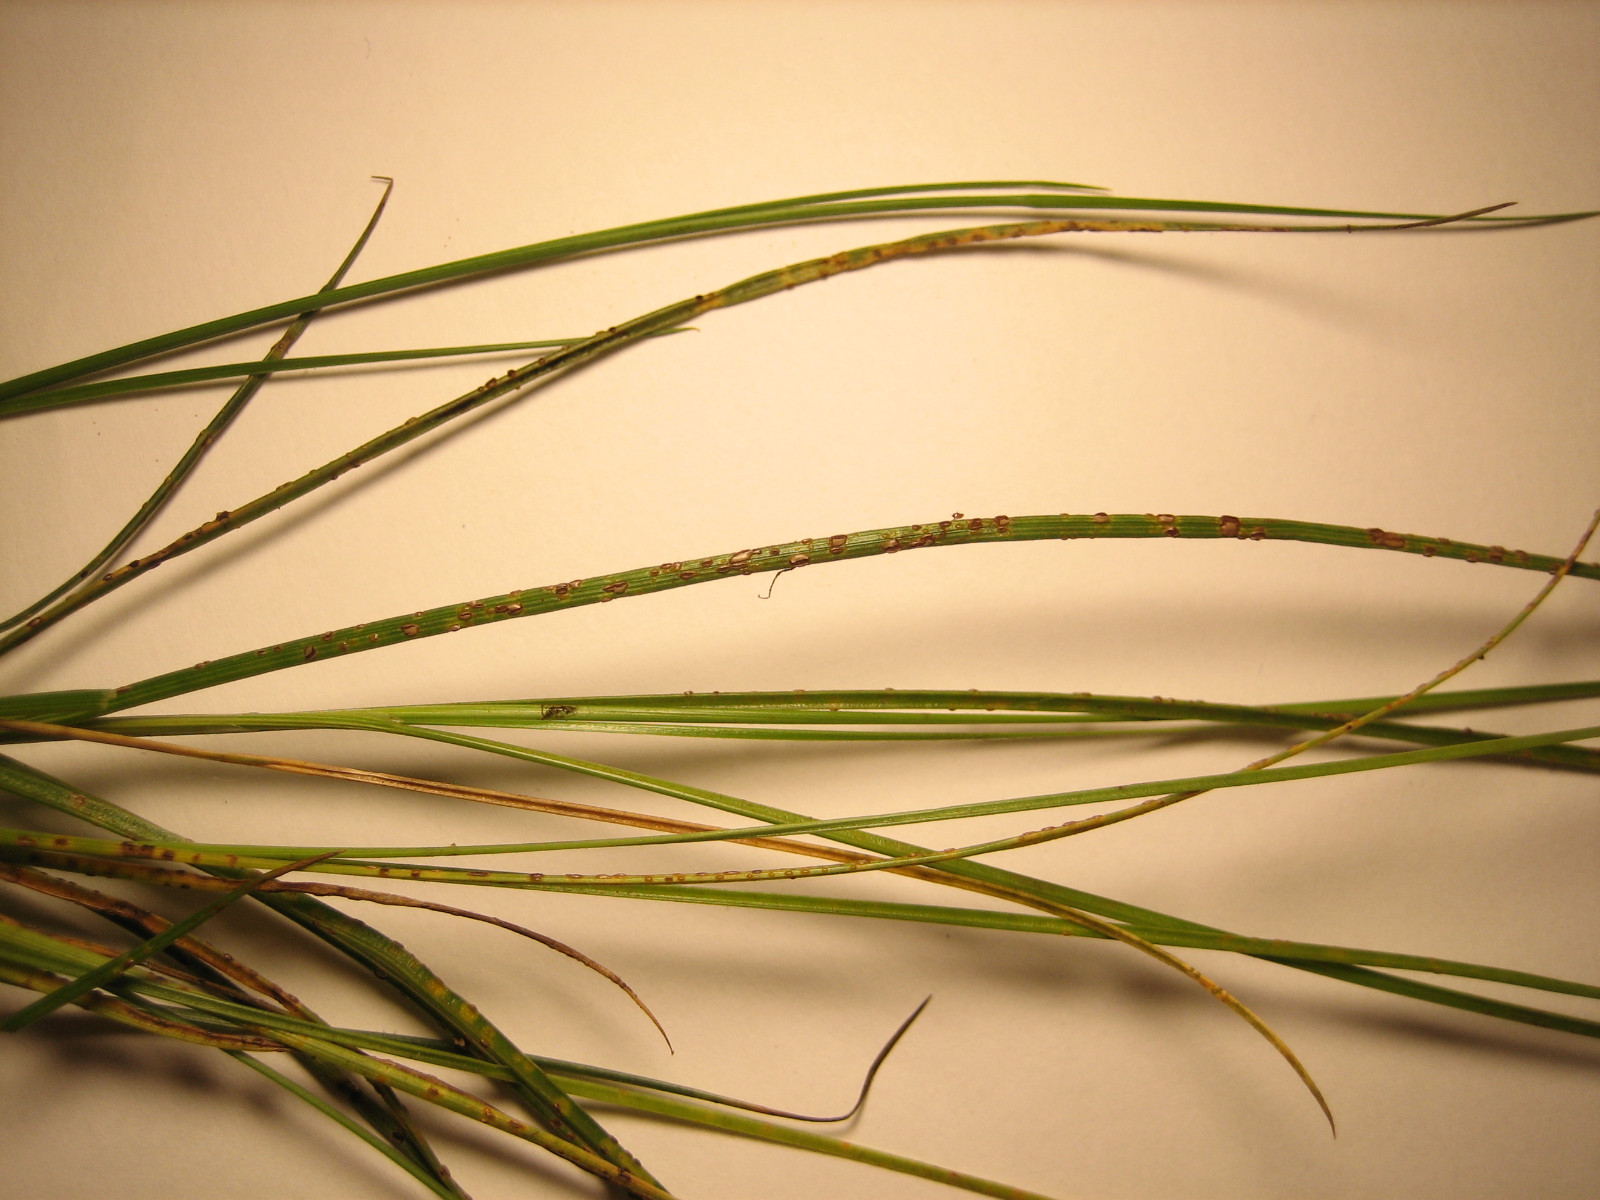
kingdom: Fungi
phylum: Basidiomycota
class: Pucciniomycetes
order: Pucciniales
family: Pucciniaceae
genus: Puccinia
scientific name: Puccinia littoralis
